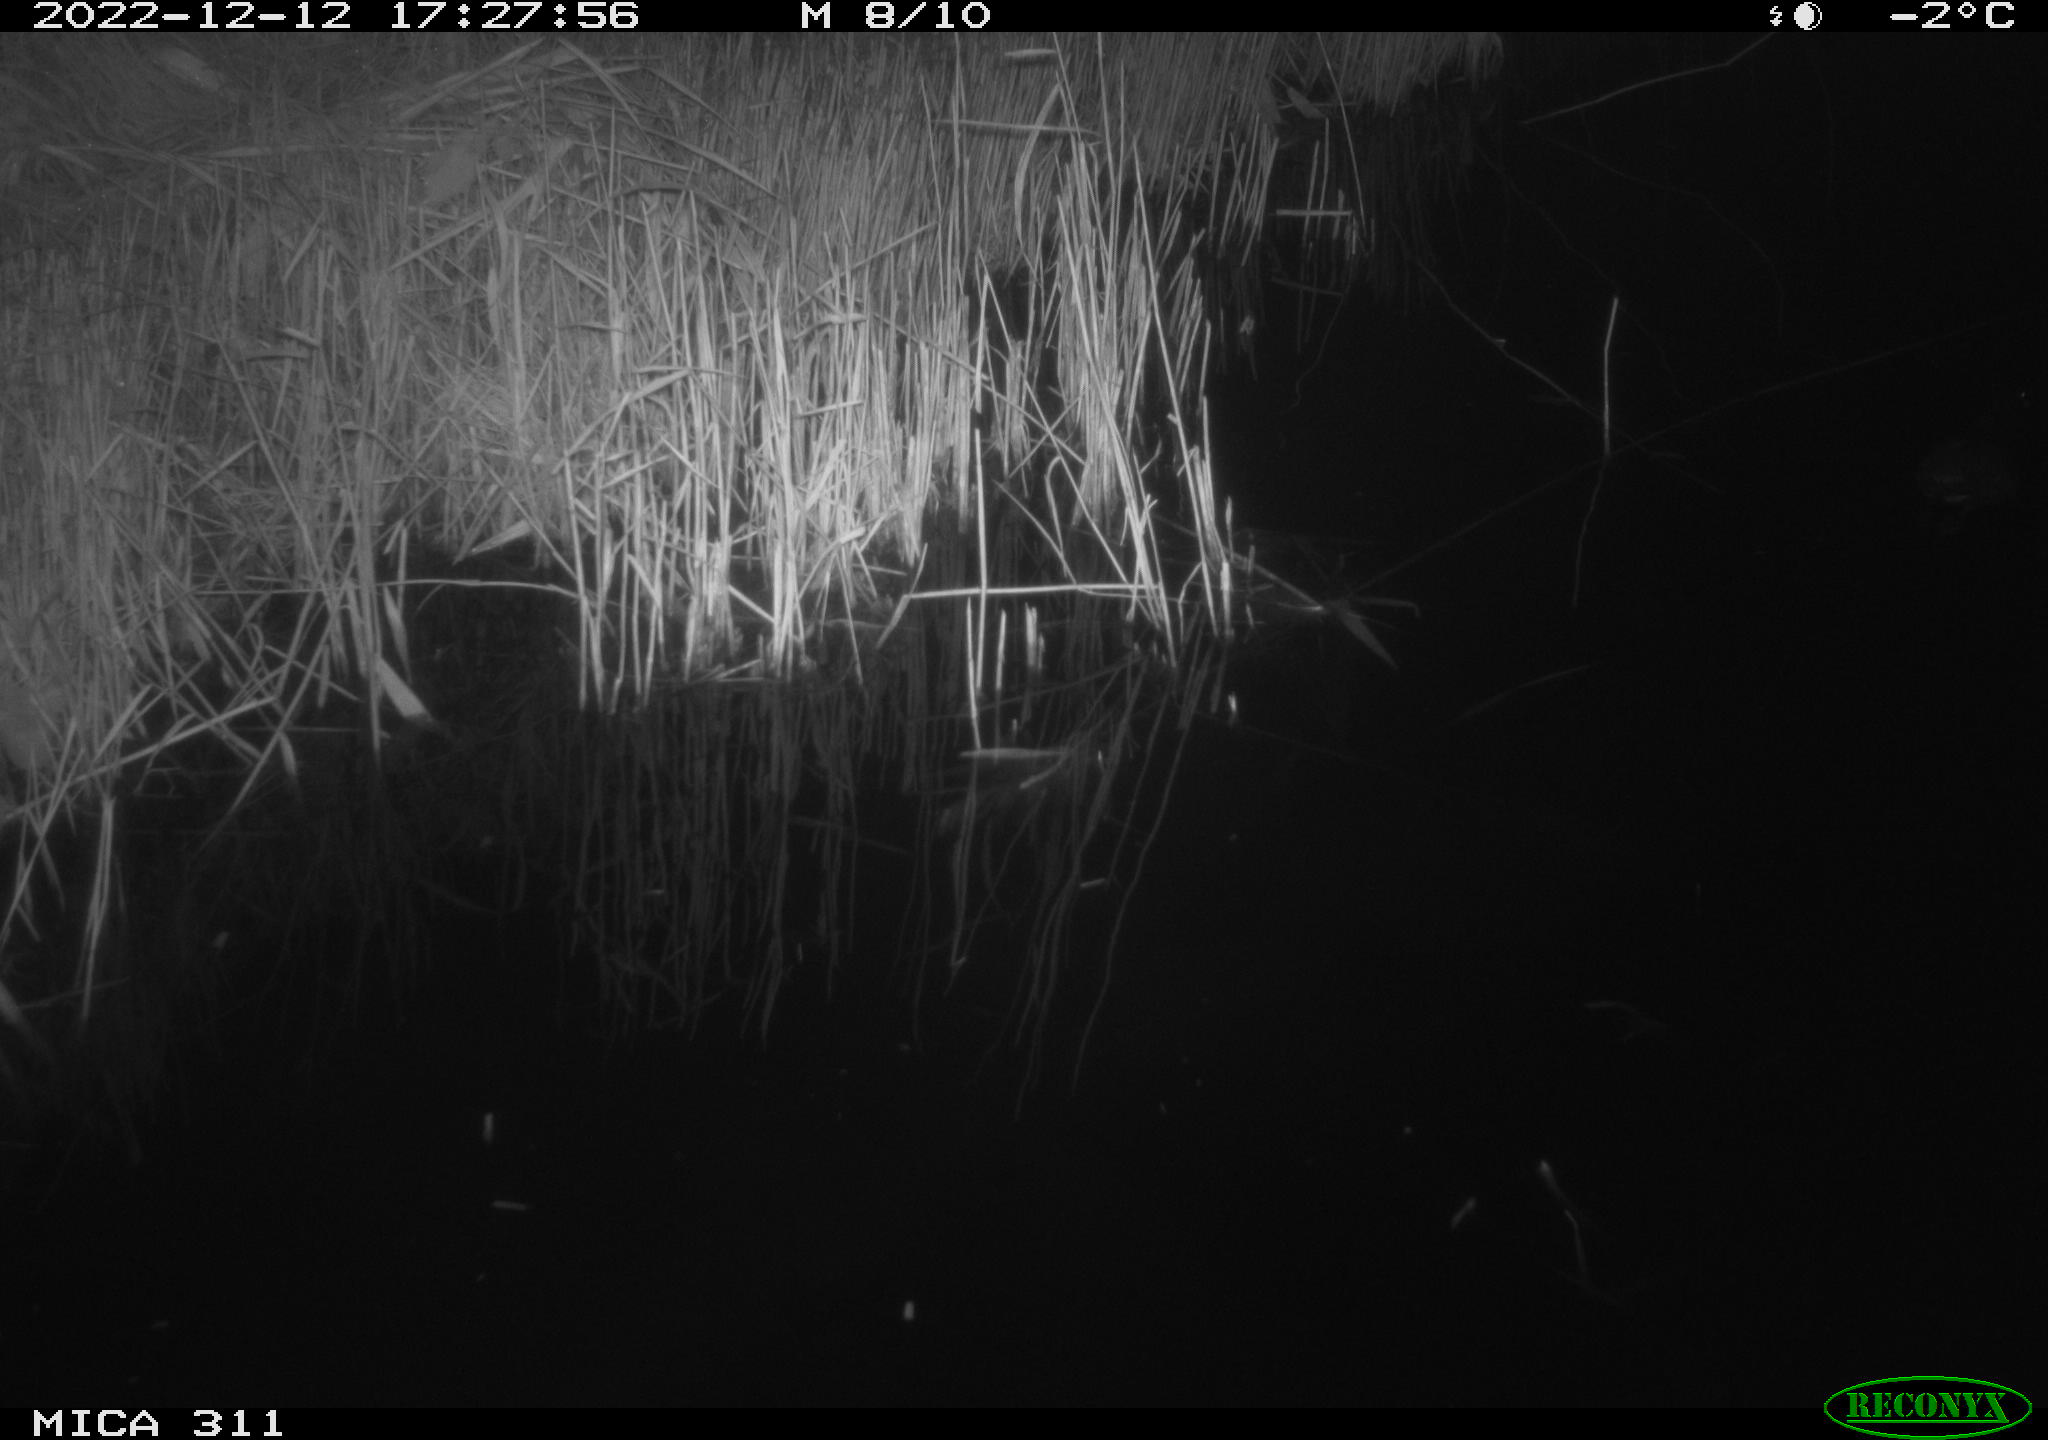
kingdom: Animalia
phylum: Chordata
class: Aves
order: Gruiformes
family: Rallidae
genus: Gallinula
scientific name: Gallinula chloropus
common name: Common moorhen
